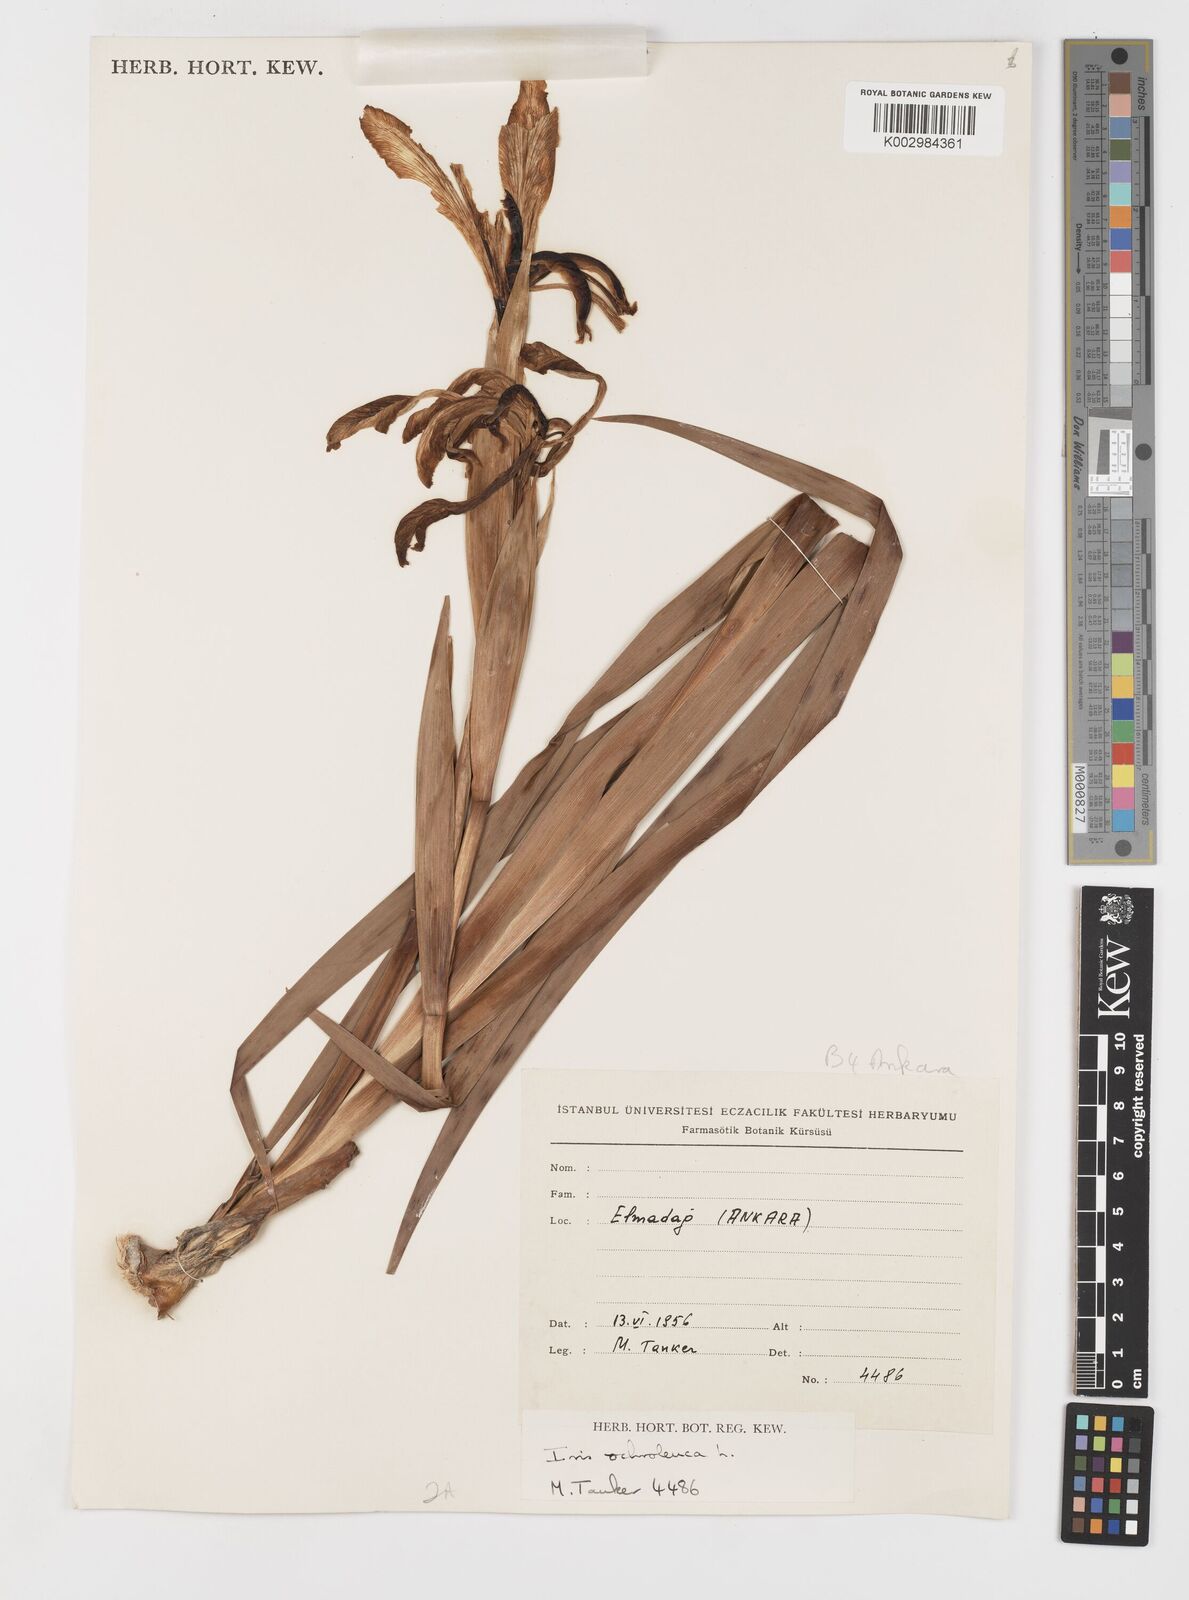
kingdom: Plantae
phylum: Tracheophyta
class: Liliopsida
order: Asparagales
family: Iridaceae
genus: Iris
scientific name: Iris orientalis
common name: Turkish iris
